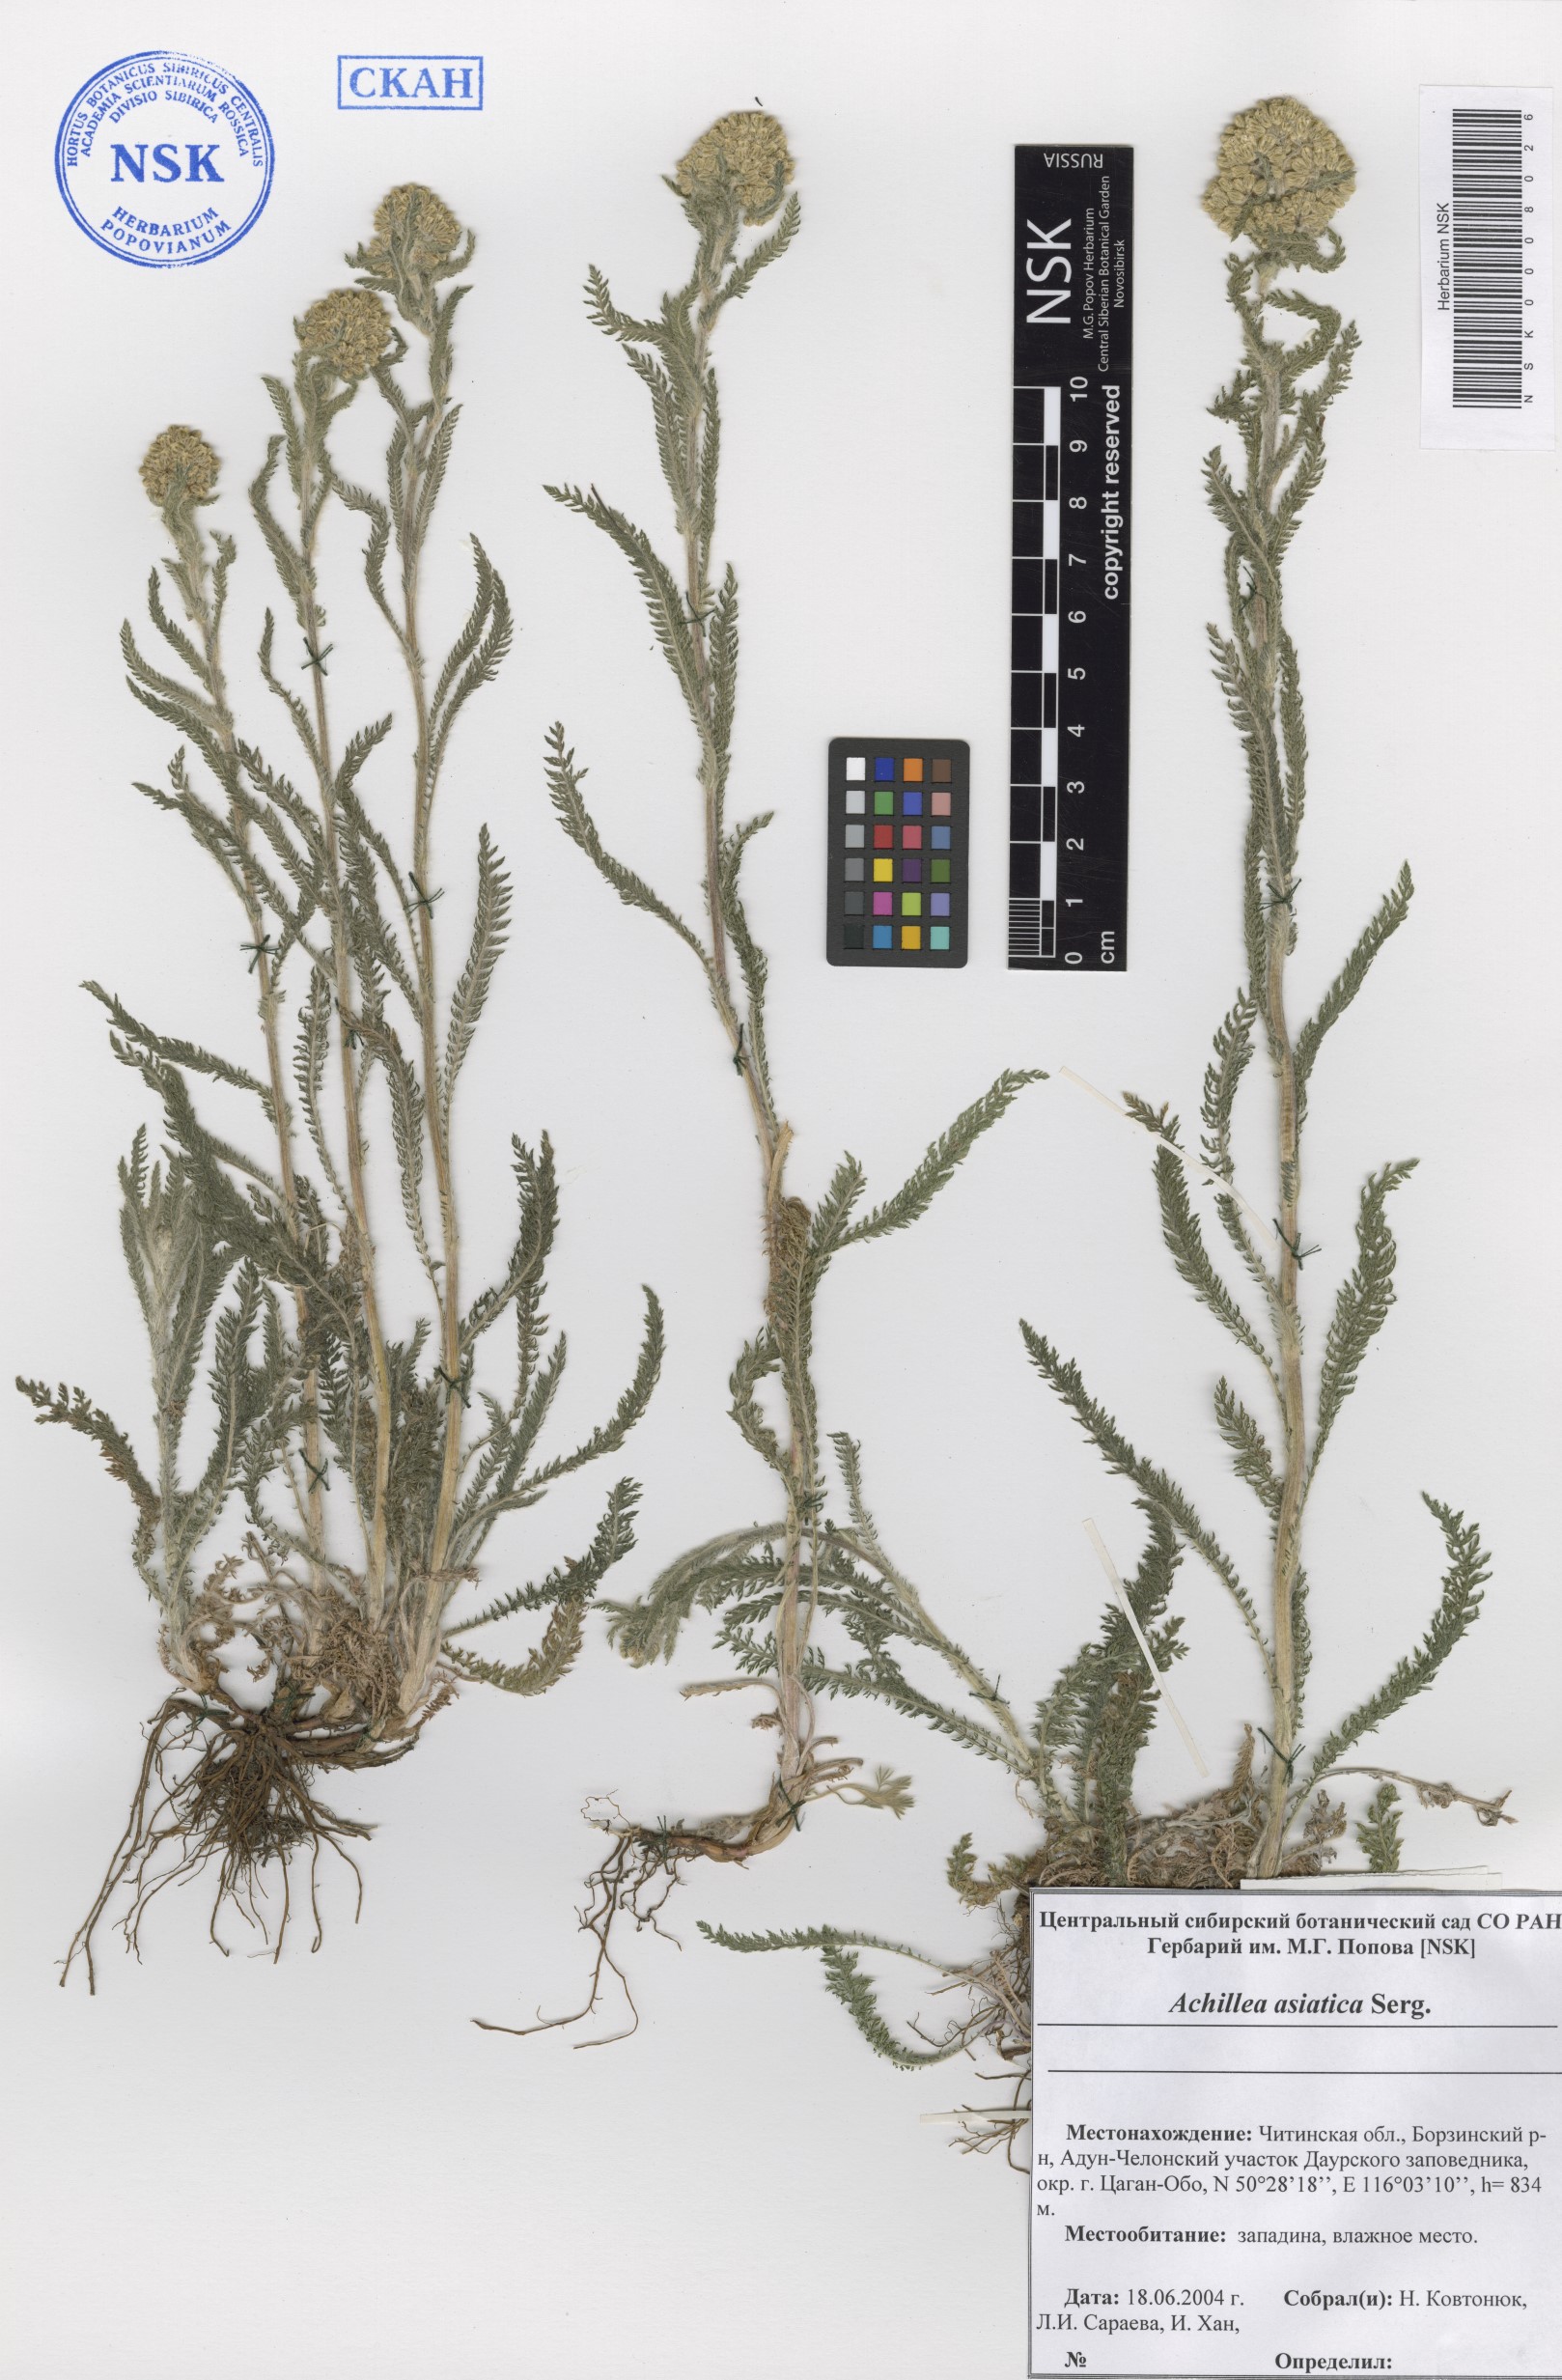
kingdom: Plantae
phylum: Tracheophyta
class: Magnoliopsida
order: Asterales
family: Asteraceae
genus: Achillea
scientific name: Achillea asiatica
